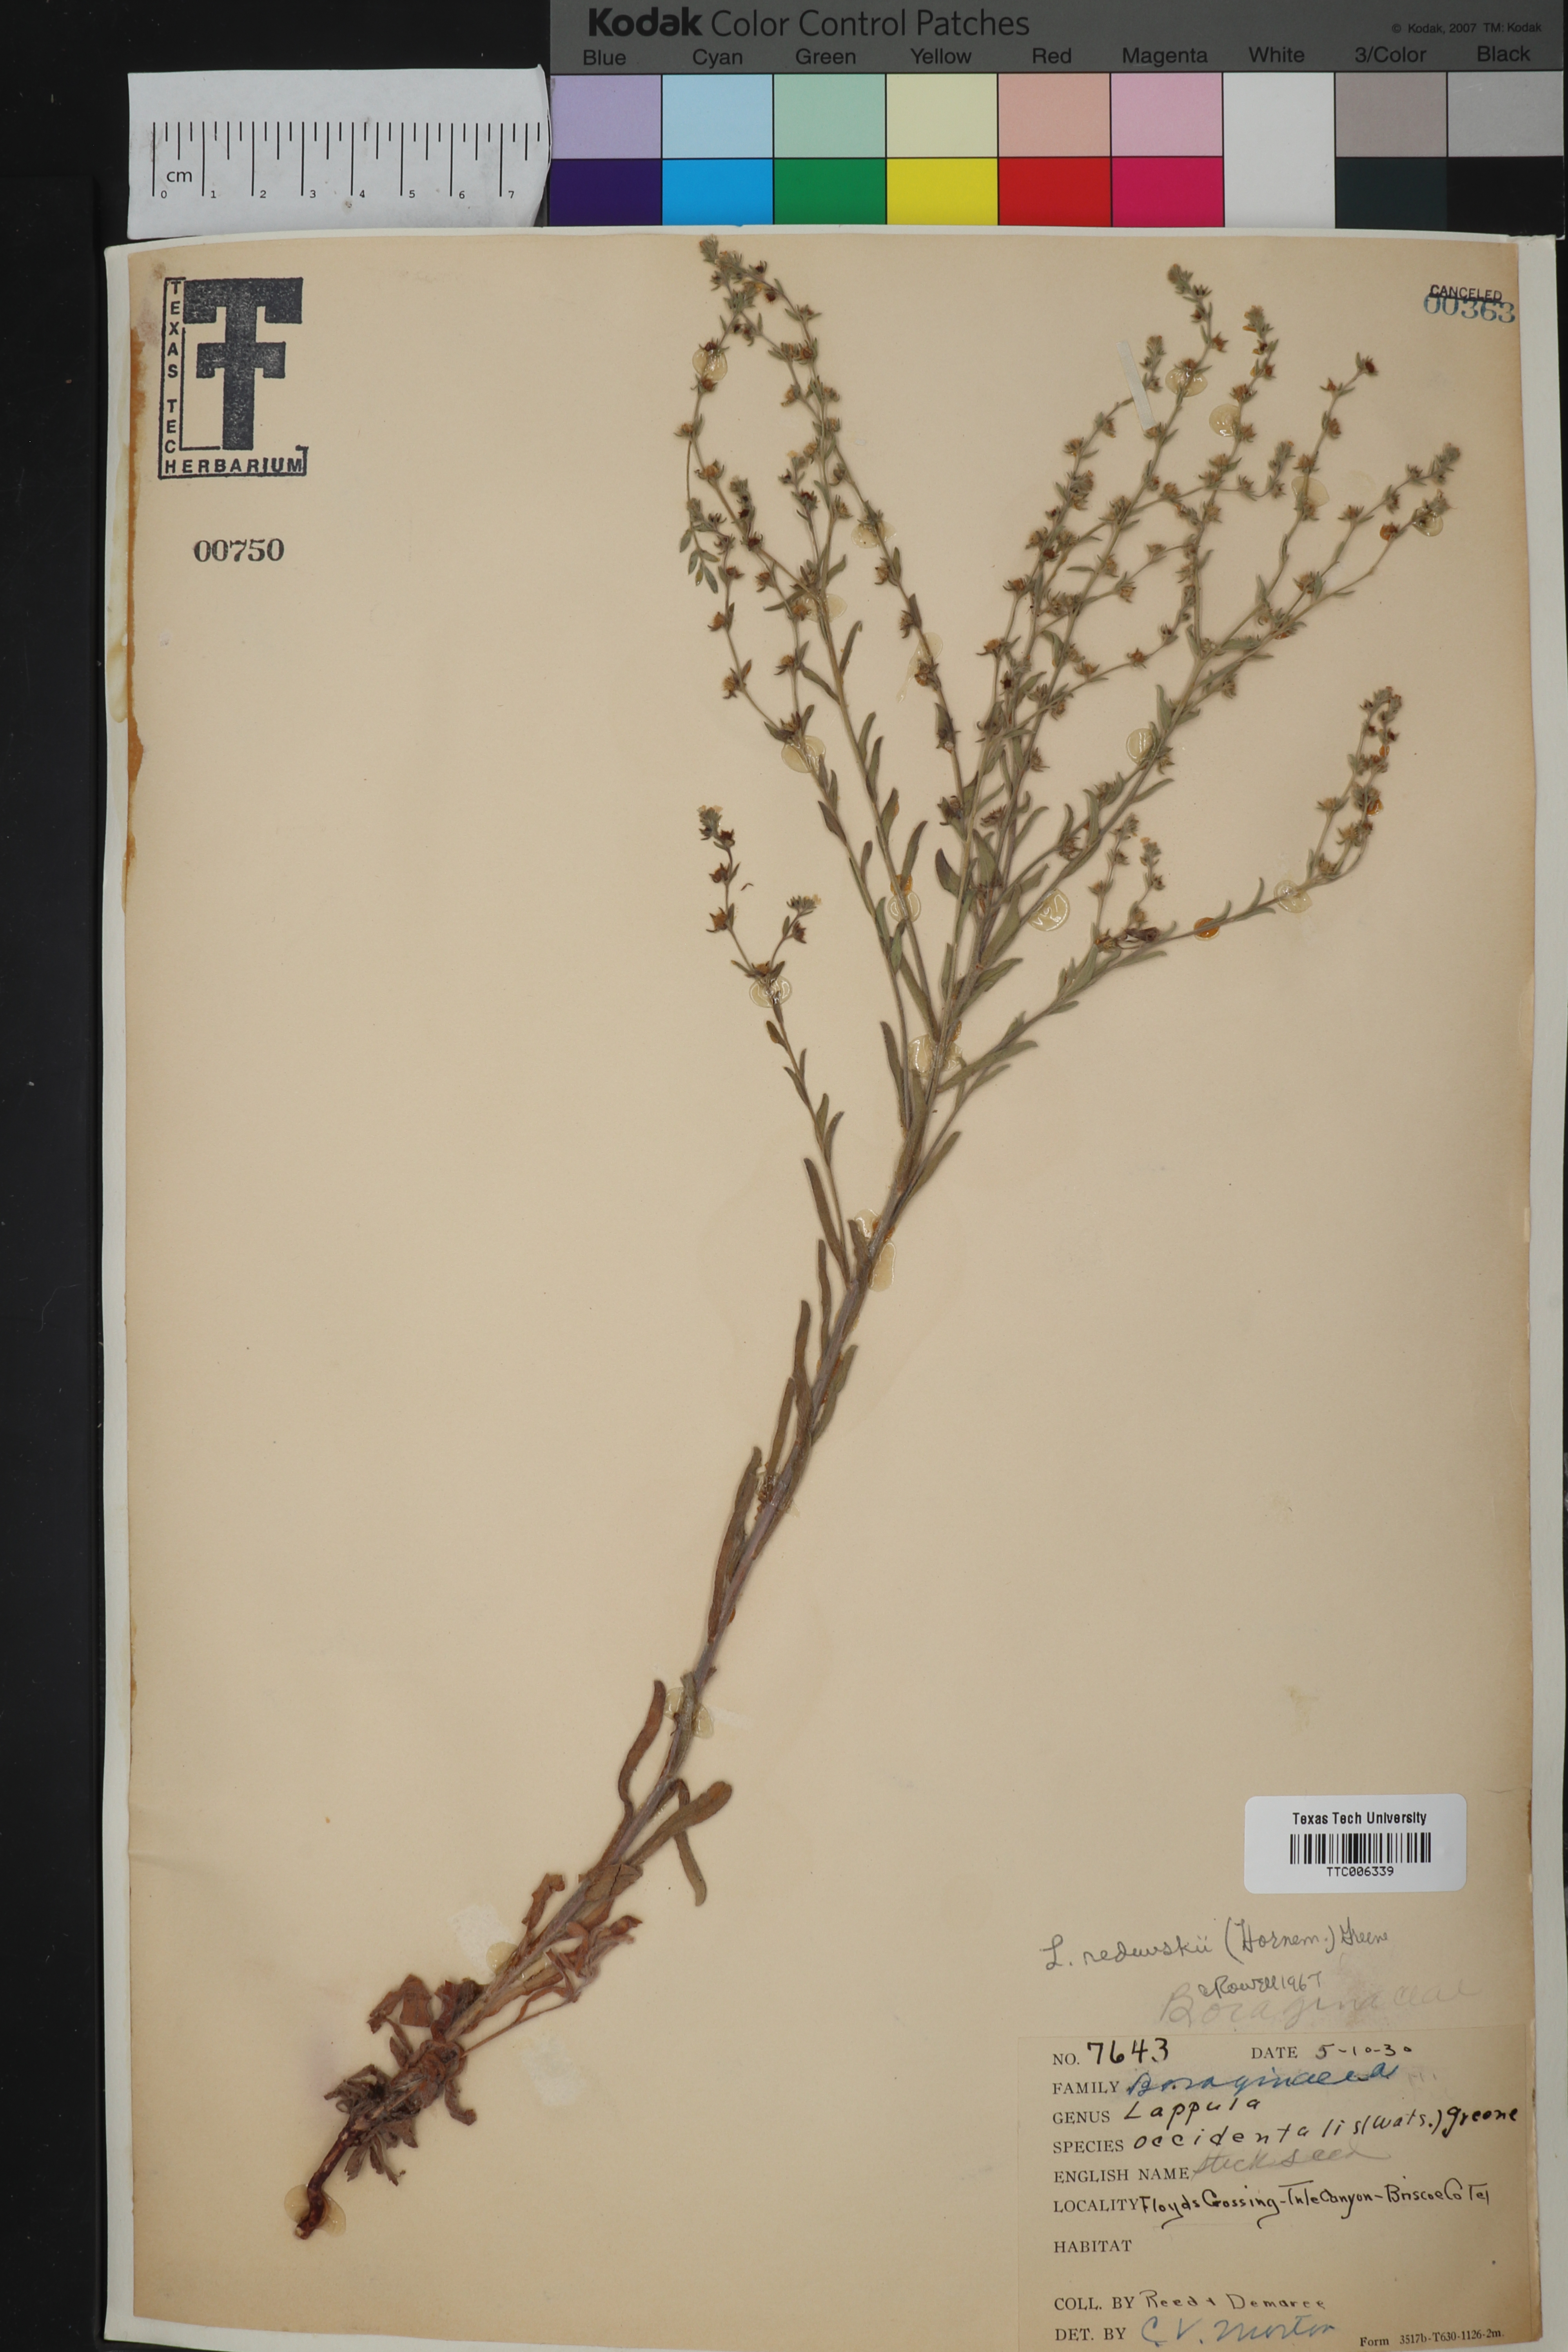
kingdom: Plantae
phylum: Tracheophyta
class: Magnoliopsida
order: Boraginales
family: Boraginaceae
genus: Lappula
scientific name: Lappula redowskii
